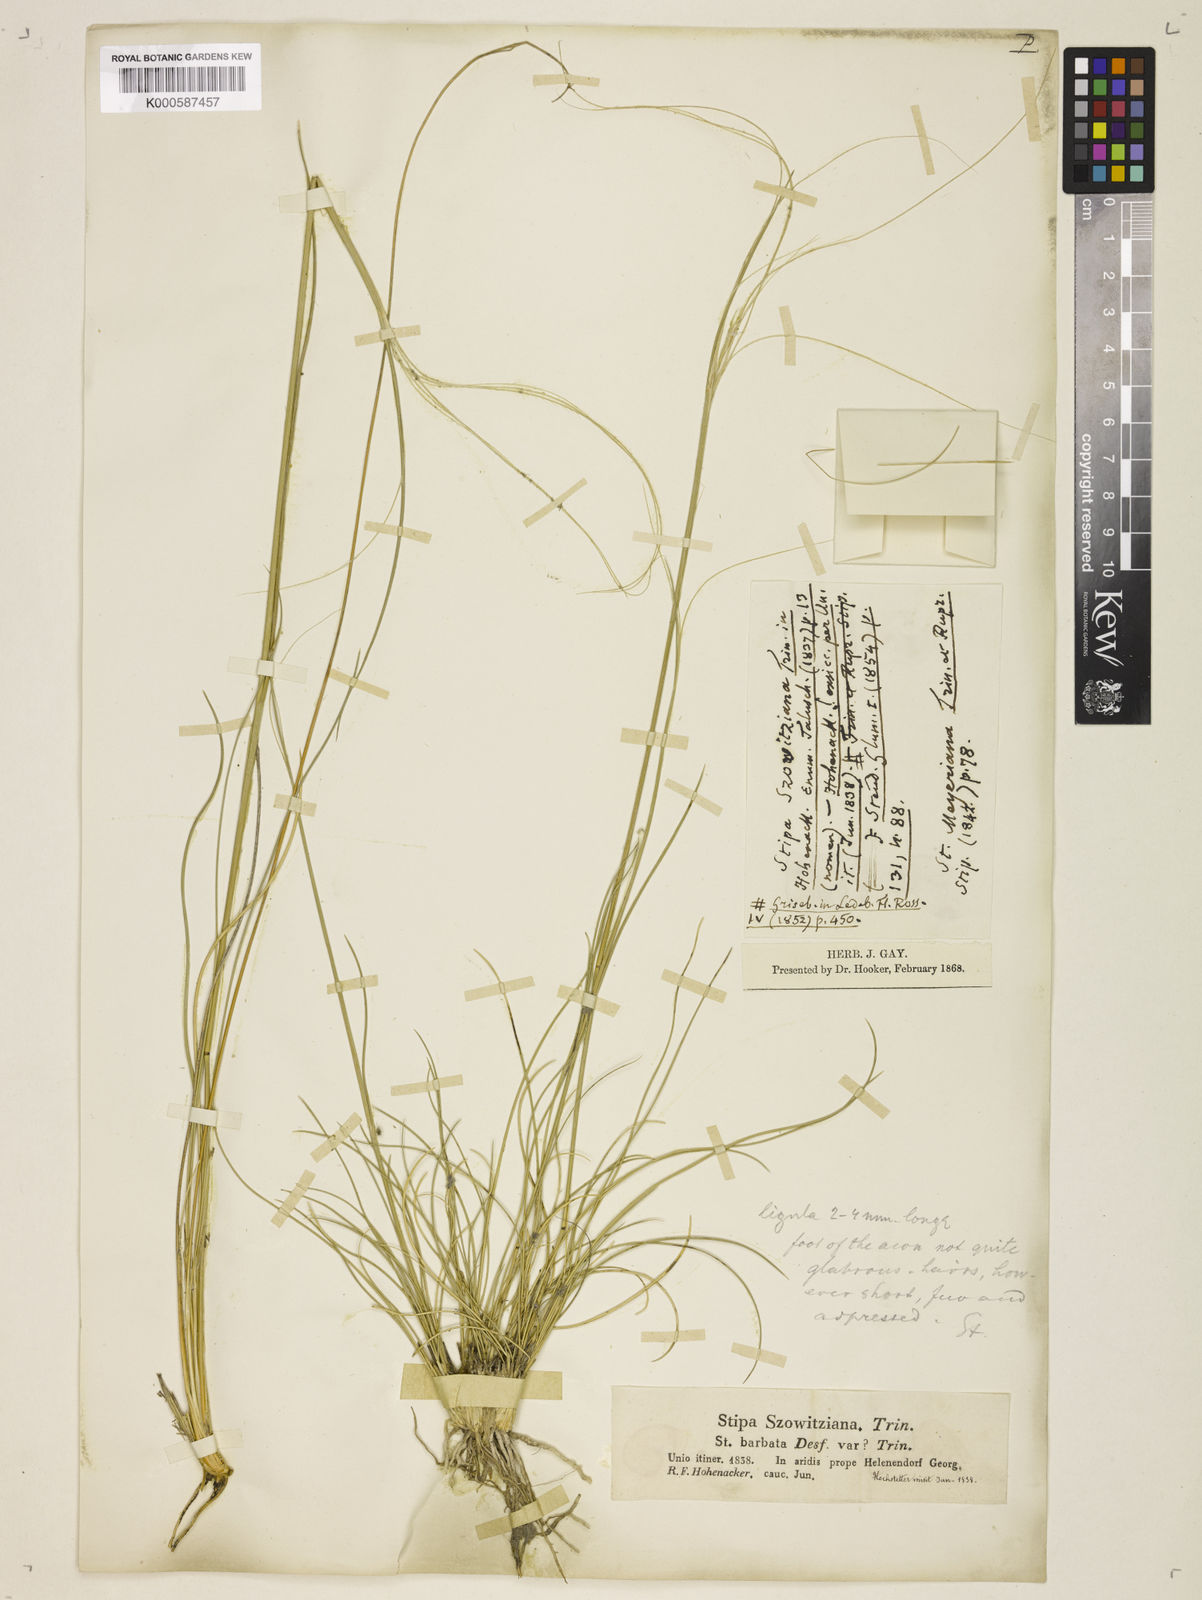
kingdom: Plantae
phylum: Tracheophyta
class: Liliopsida
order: Poales
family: Poaceae
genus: Stipa
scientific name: Stipa arabica
